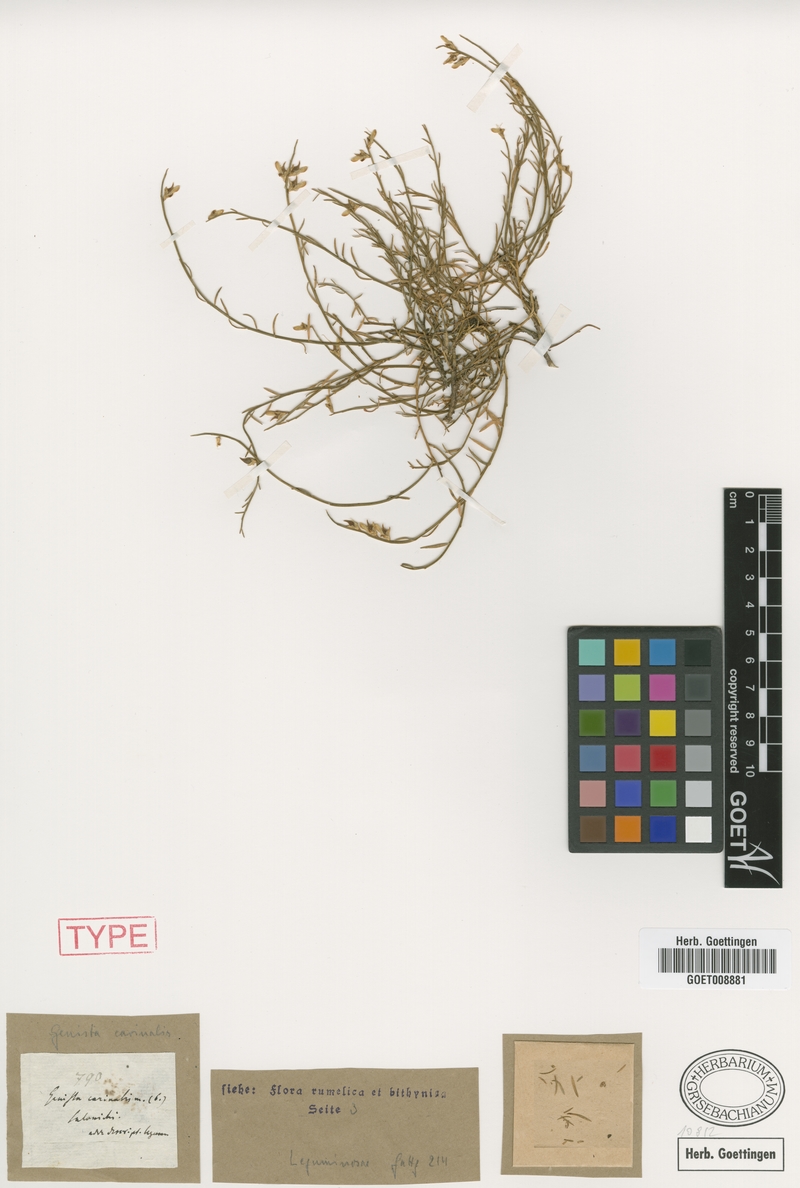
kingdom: Plantae
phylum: Tracheophyta
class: Magnoliopsida
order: Fabales
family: Fabaceae
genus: Genista
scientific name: Genista carinalis
